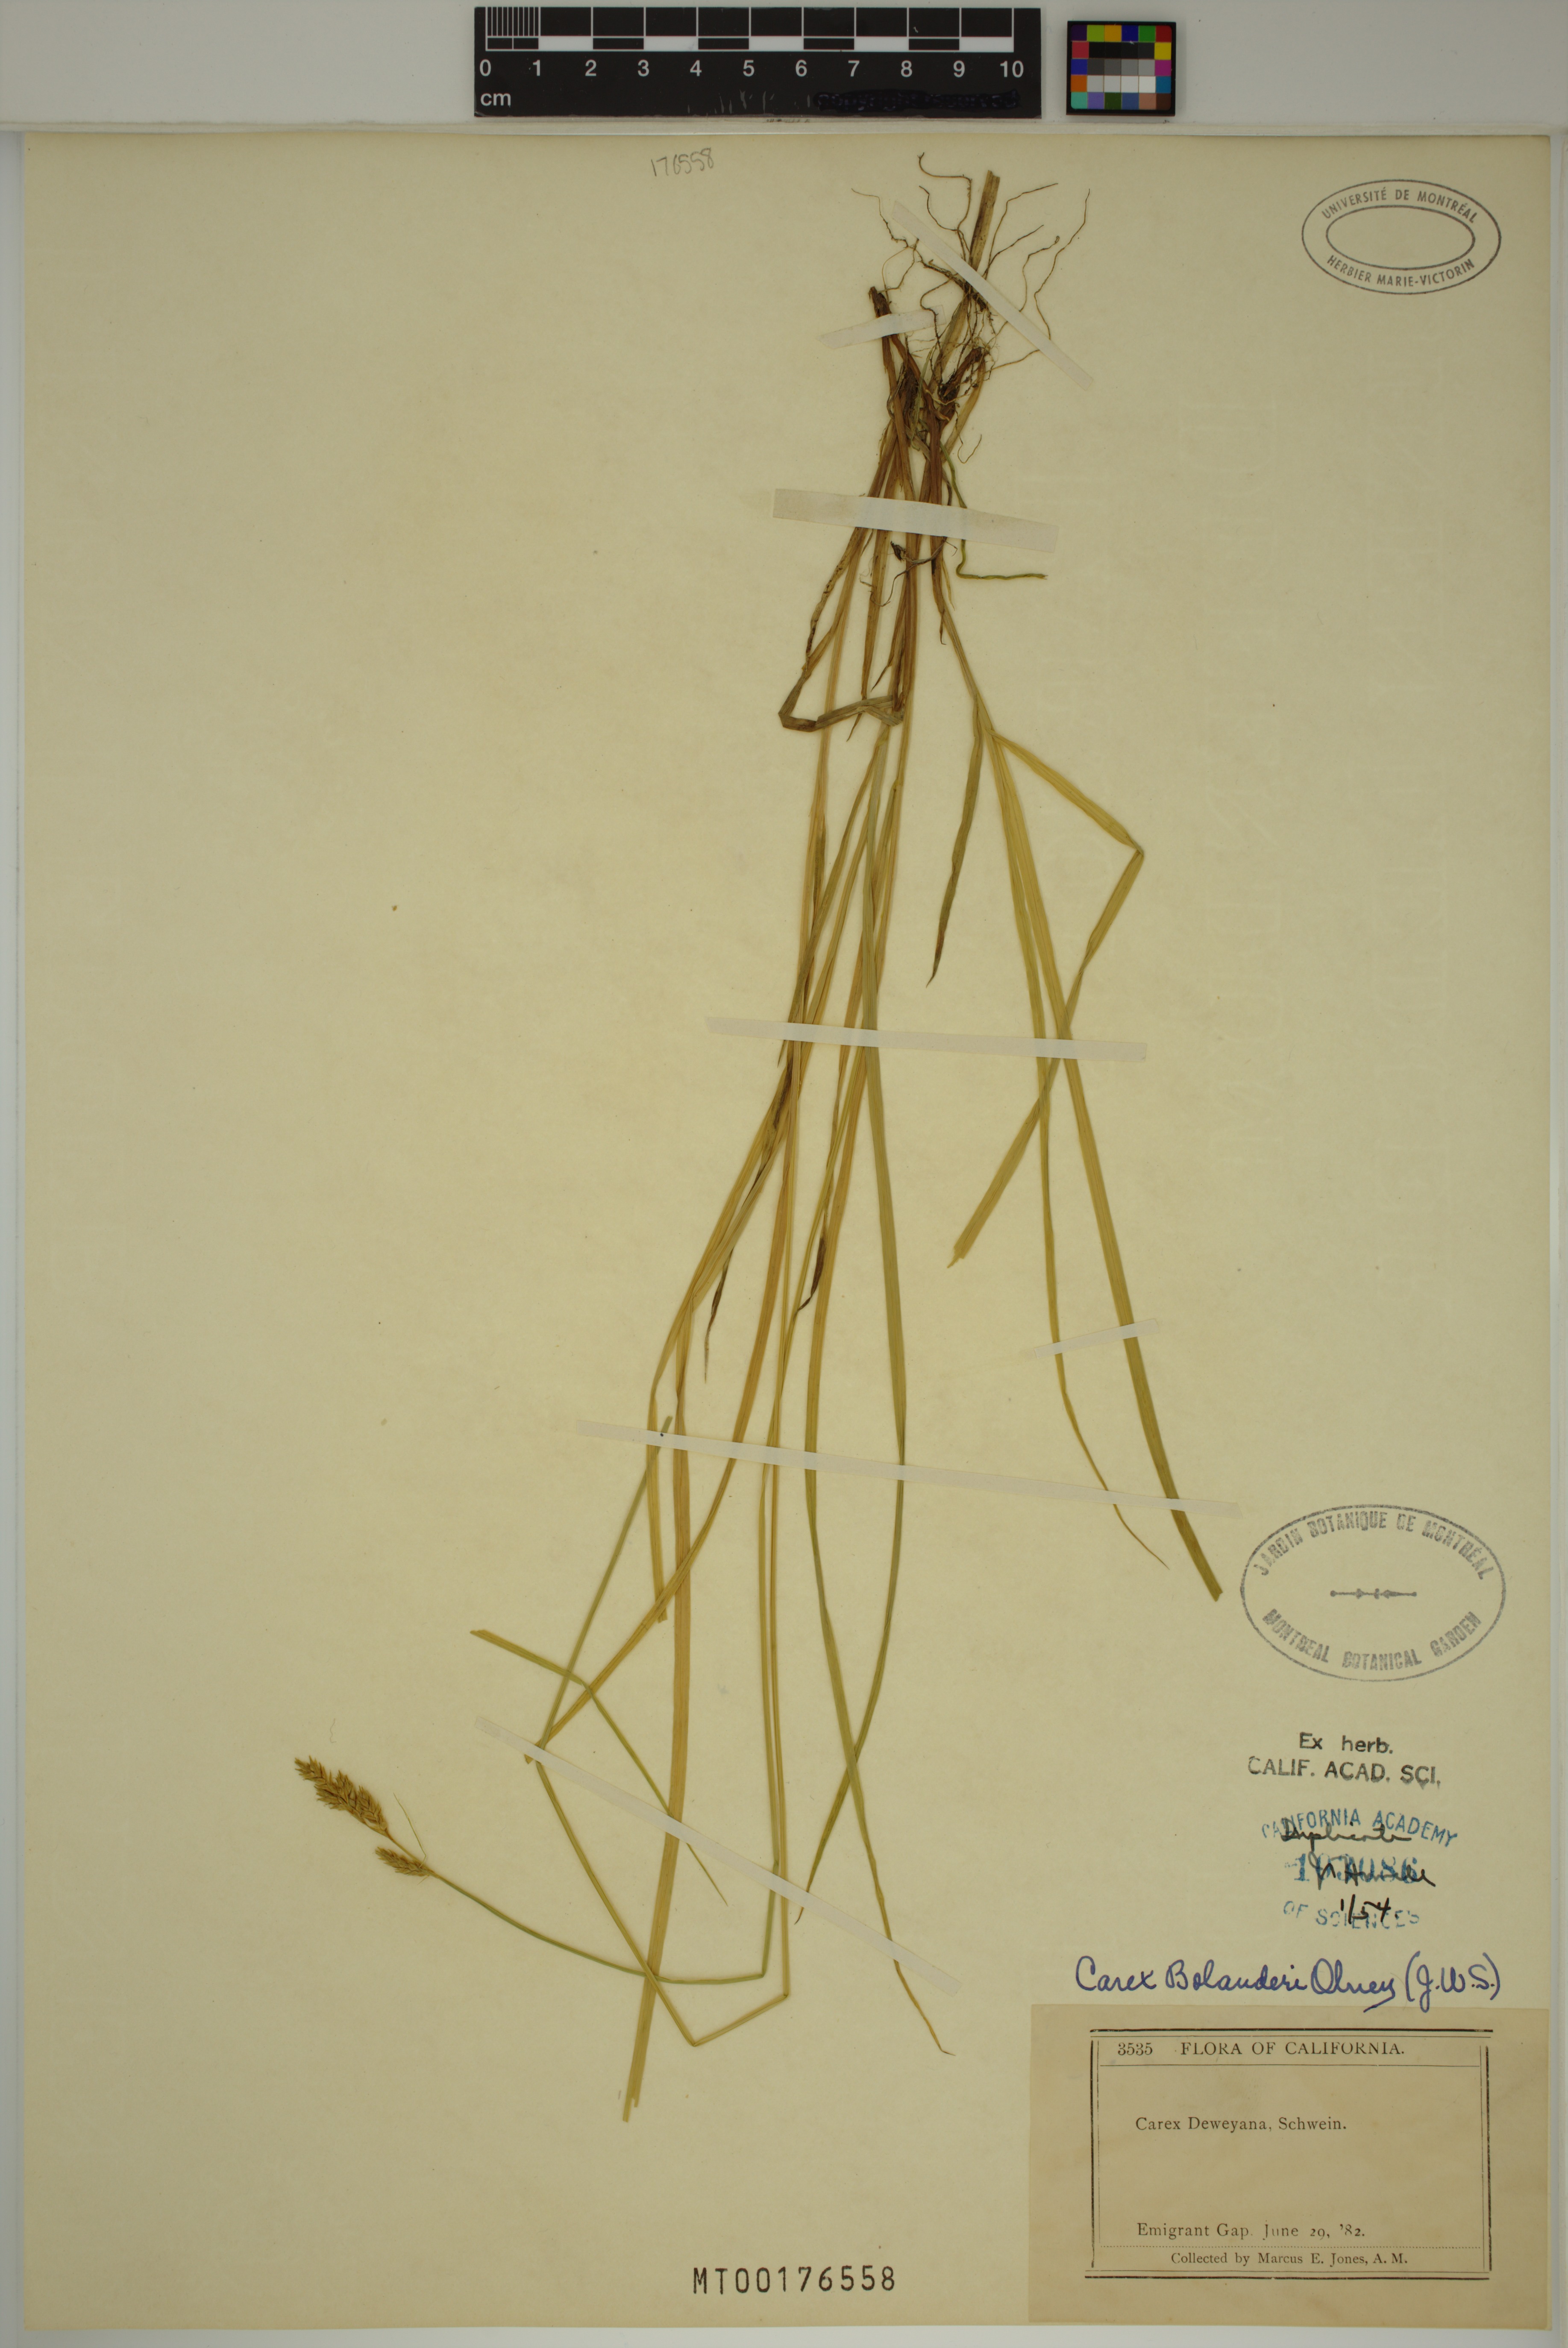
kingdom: Plantae
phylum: Tracheophyta
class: Liliopsida
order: Poales
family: Cyperaceae
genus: Carex
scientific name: Carex bolanderi
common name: Bolander's sedge
